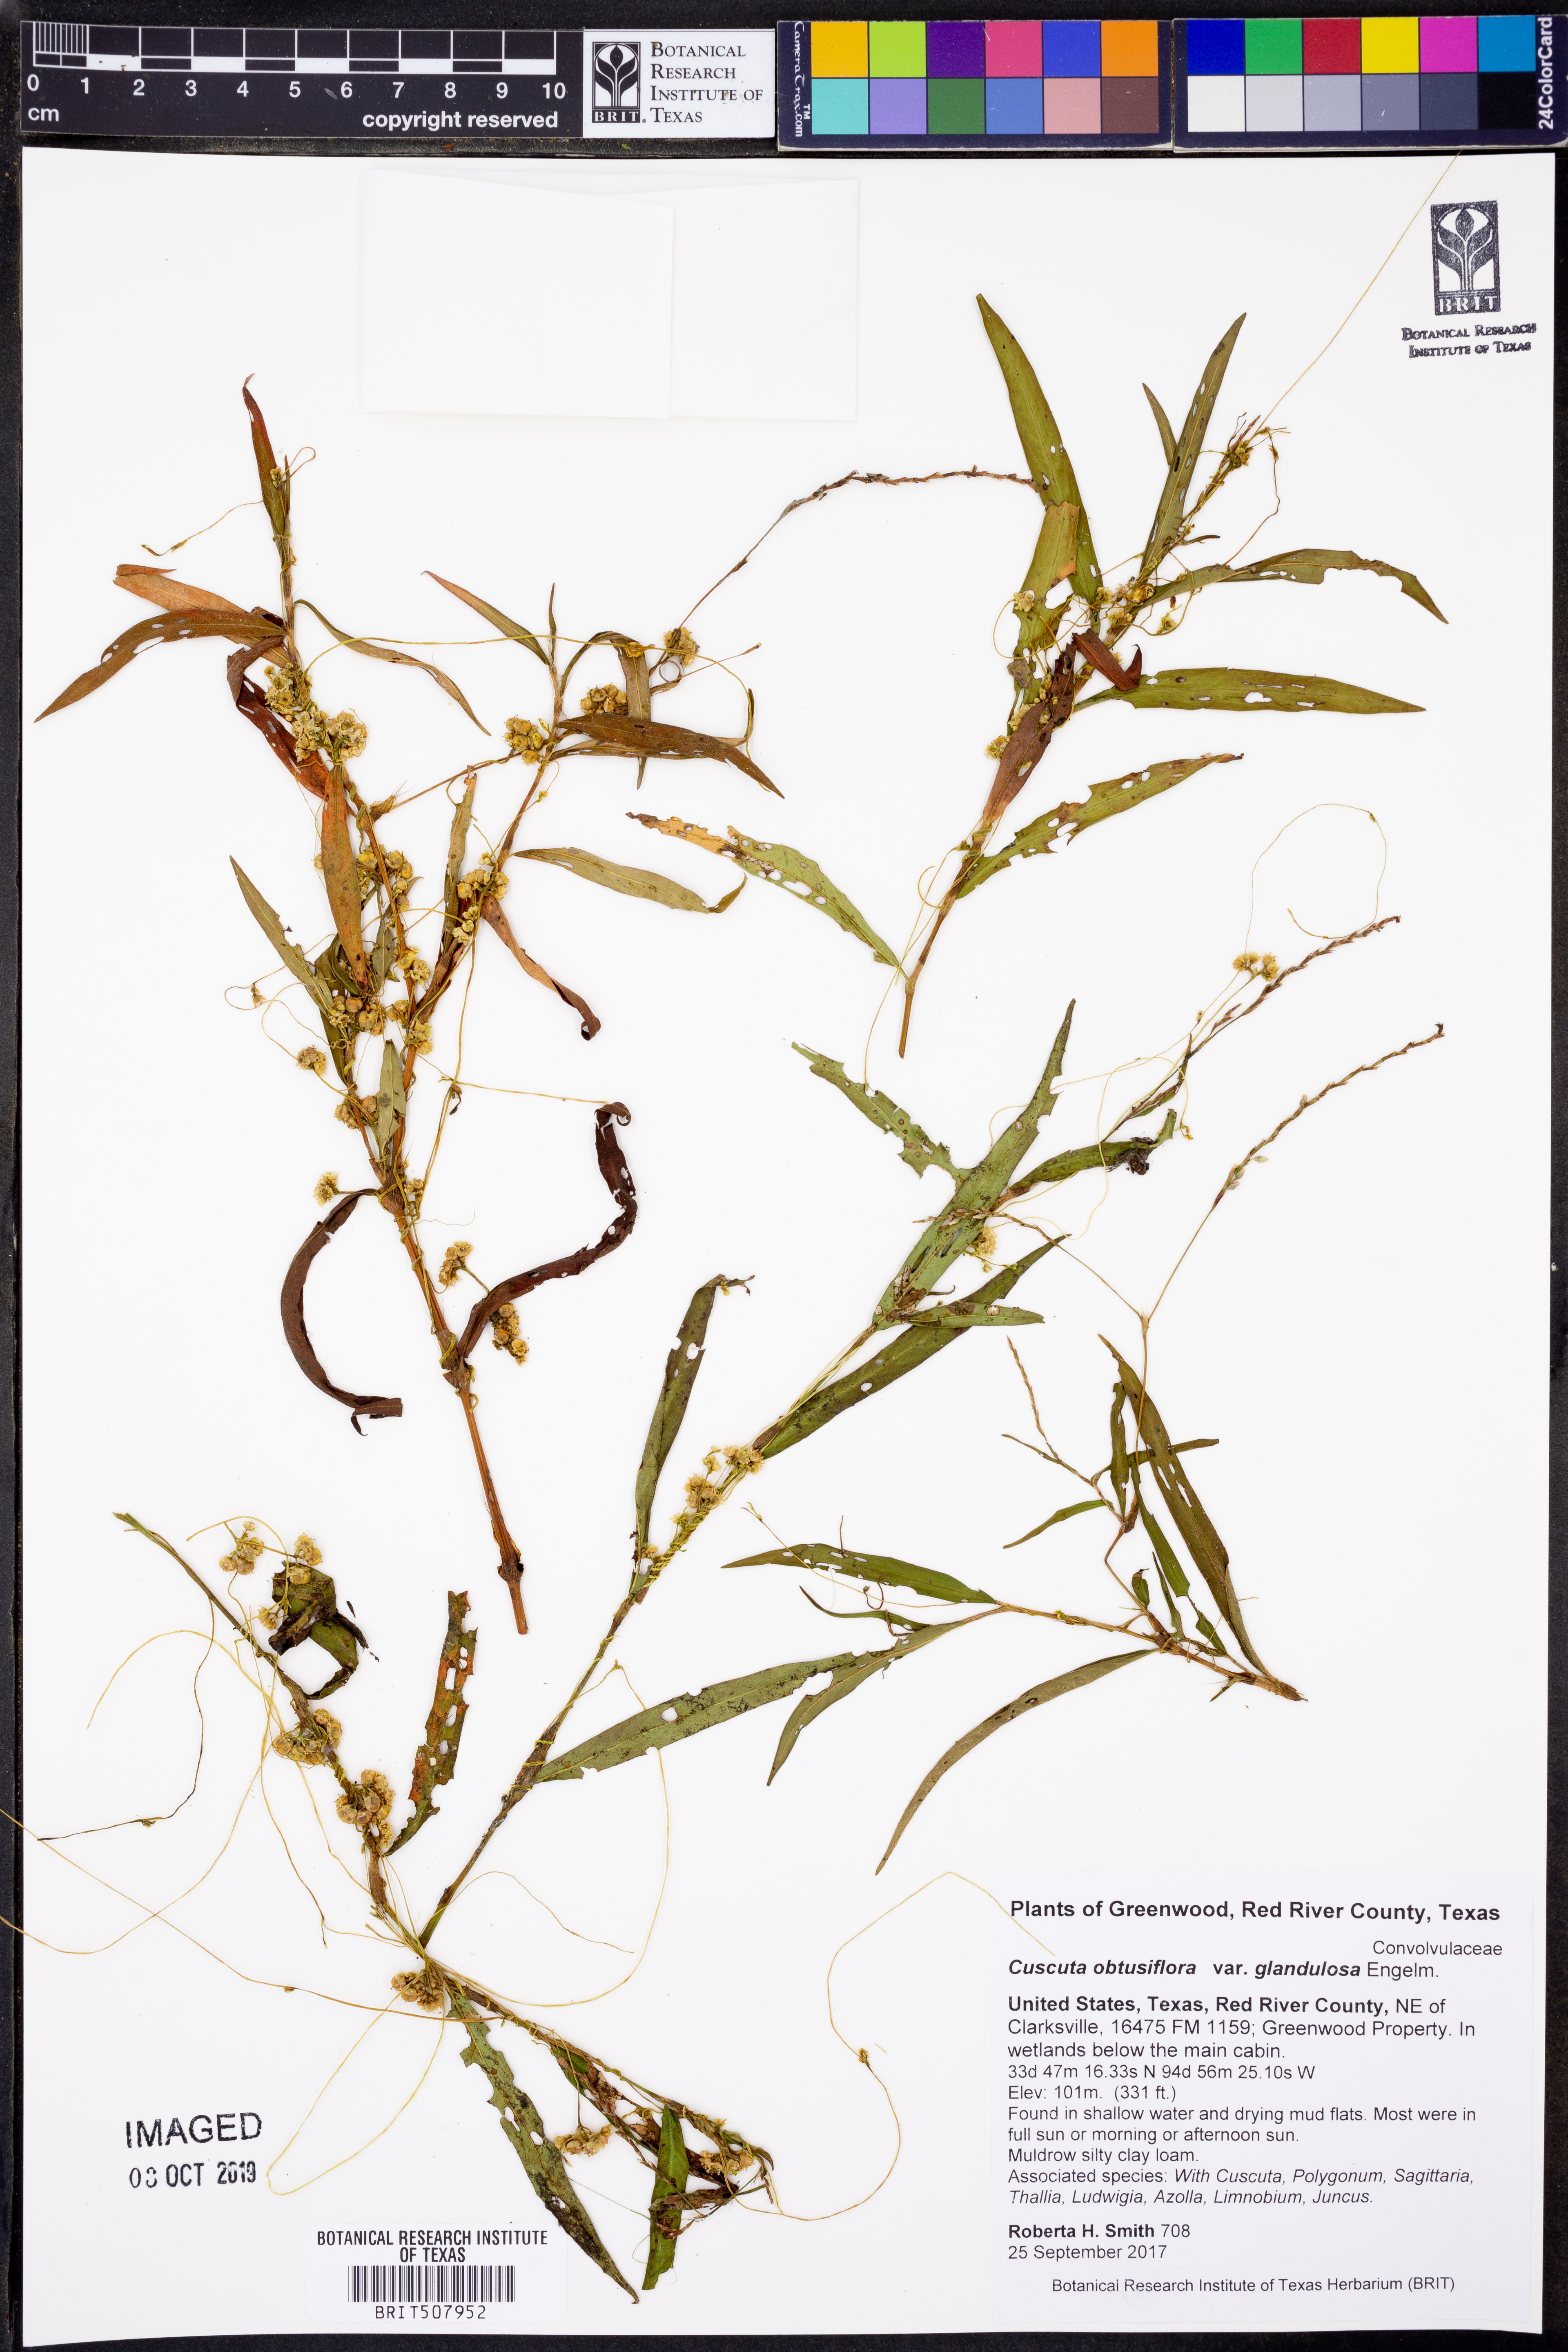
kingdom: Plantae
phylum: Tracheophyta
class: Magnoliopsida
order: Solanales
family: Convolvulaceae
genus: Cuscuta
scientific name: Cuscuta obtusiflora
